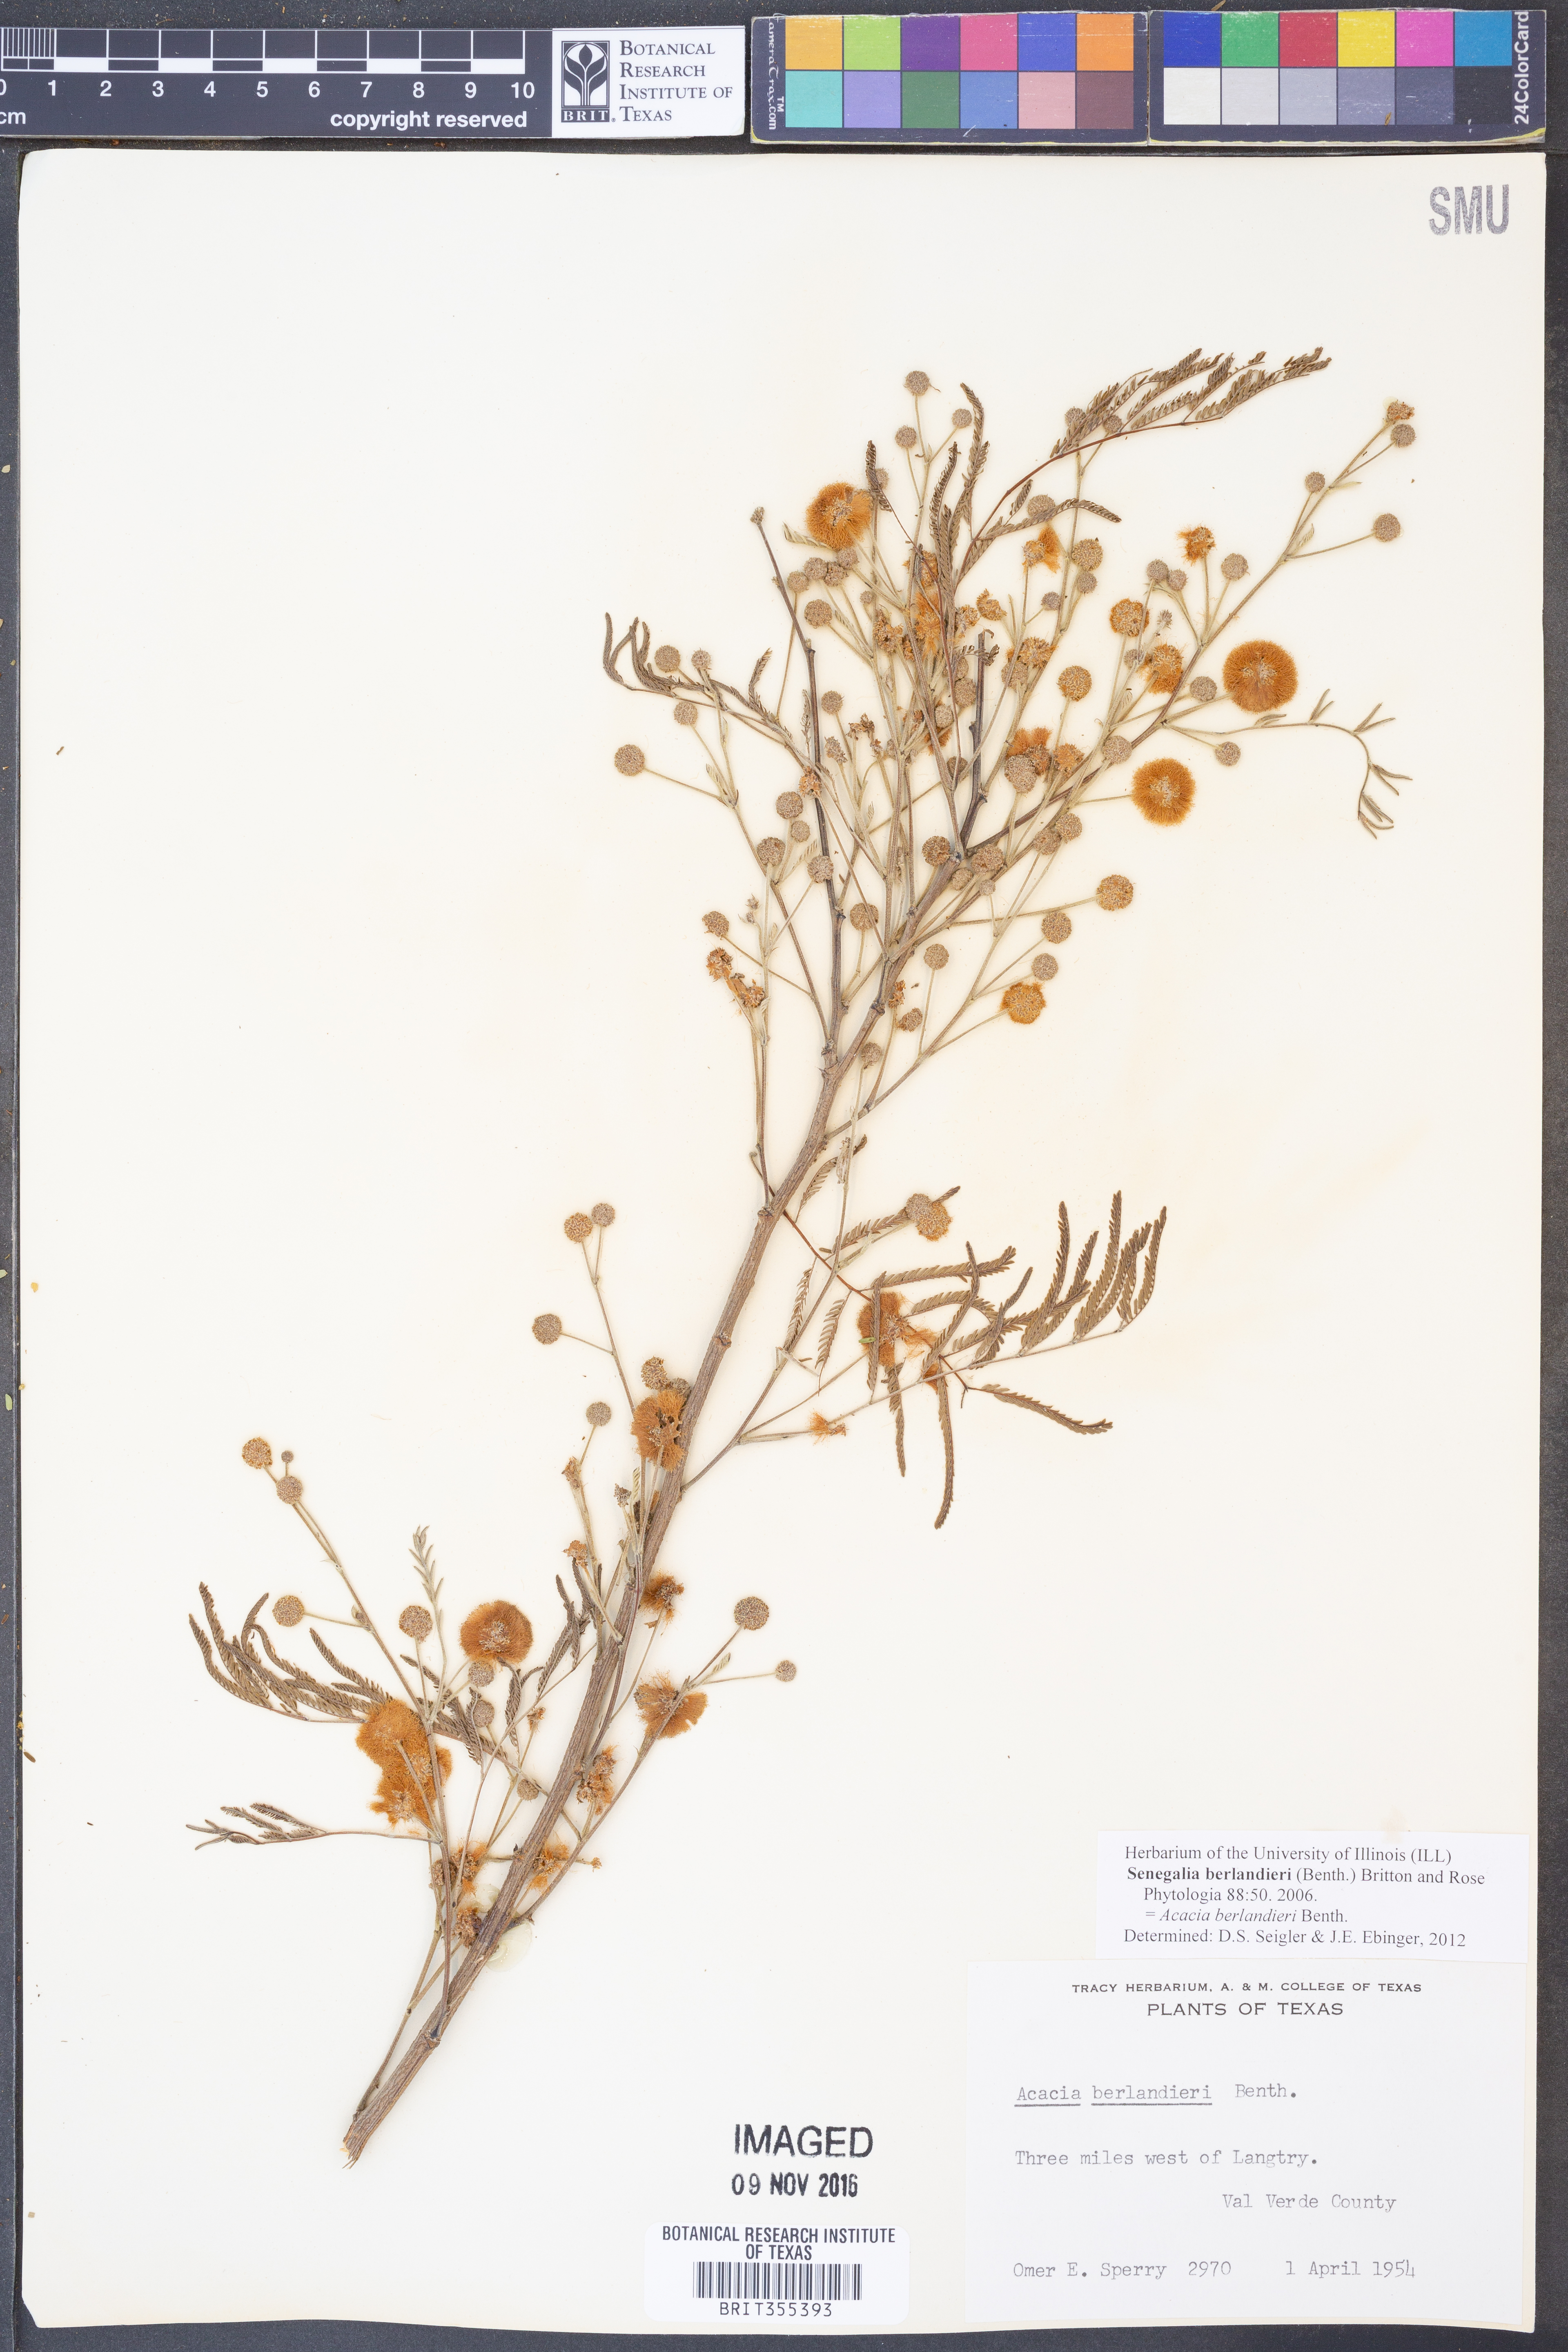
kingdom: Plantae
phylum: Tracheophyta
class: Magnoliopsida
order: Fabales
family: Fabaceae
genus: Senegalia
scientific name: Senegalia berlandieri
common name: Berlandier acacia
